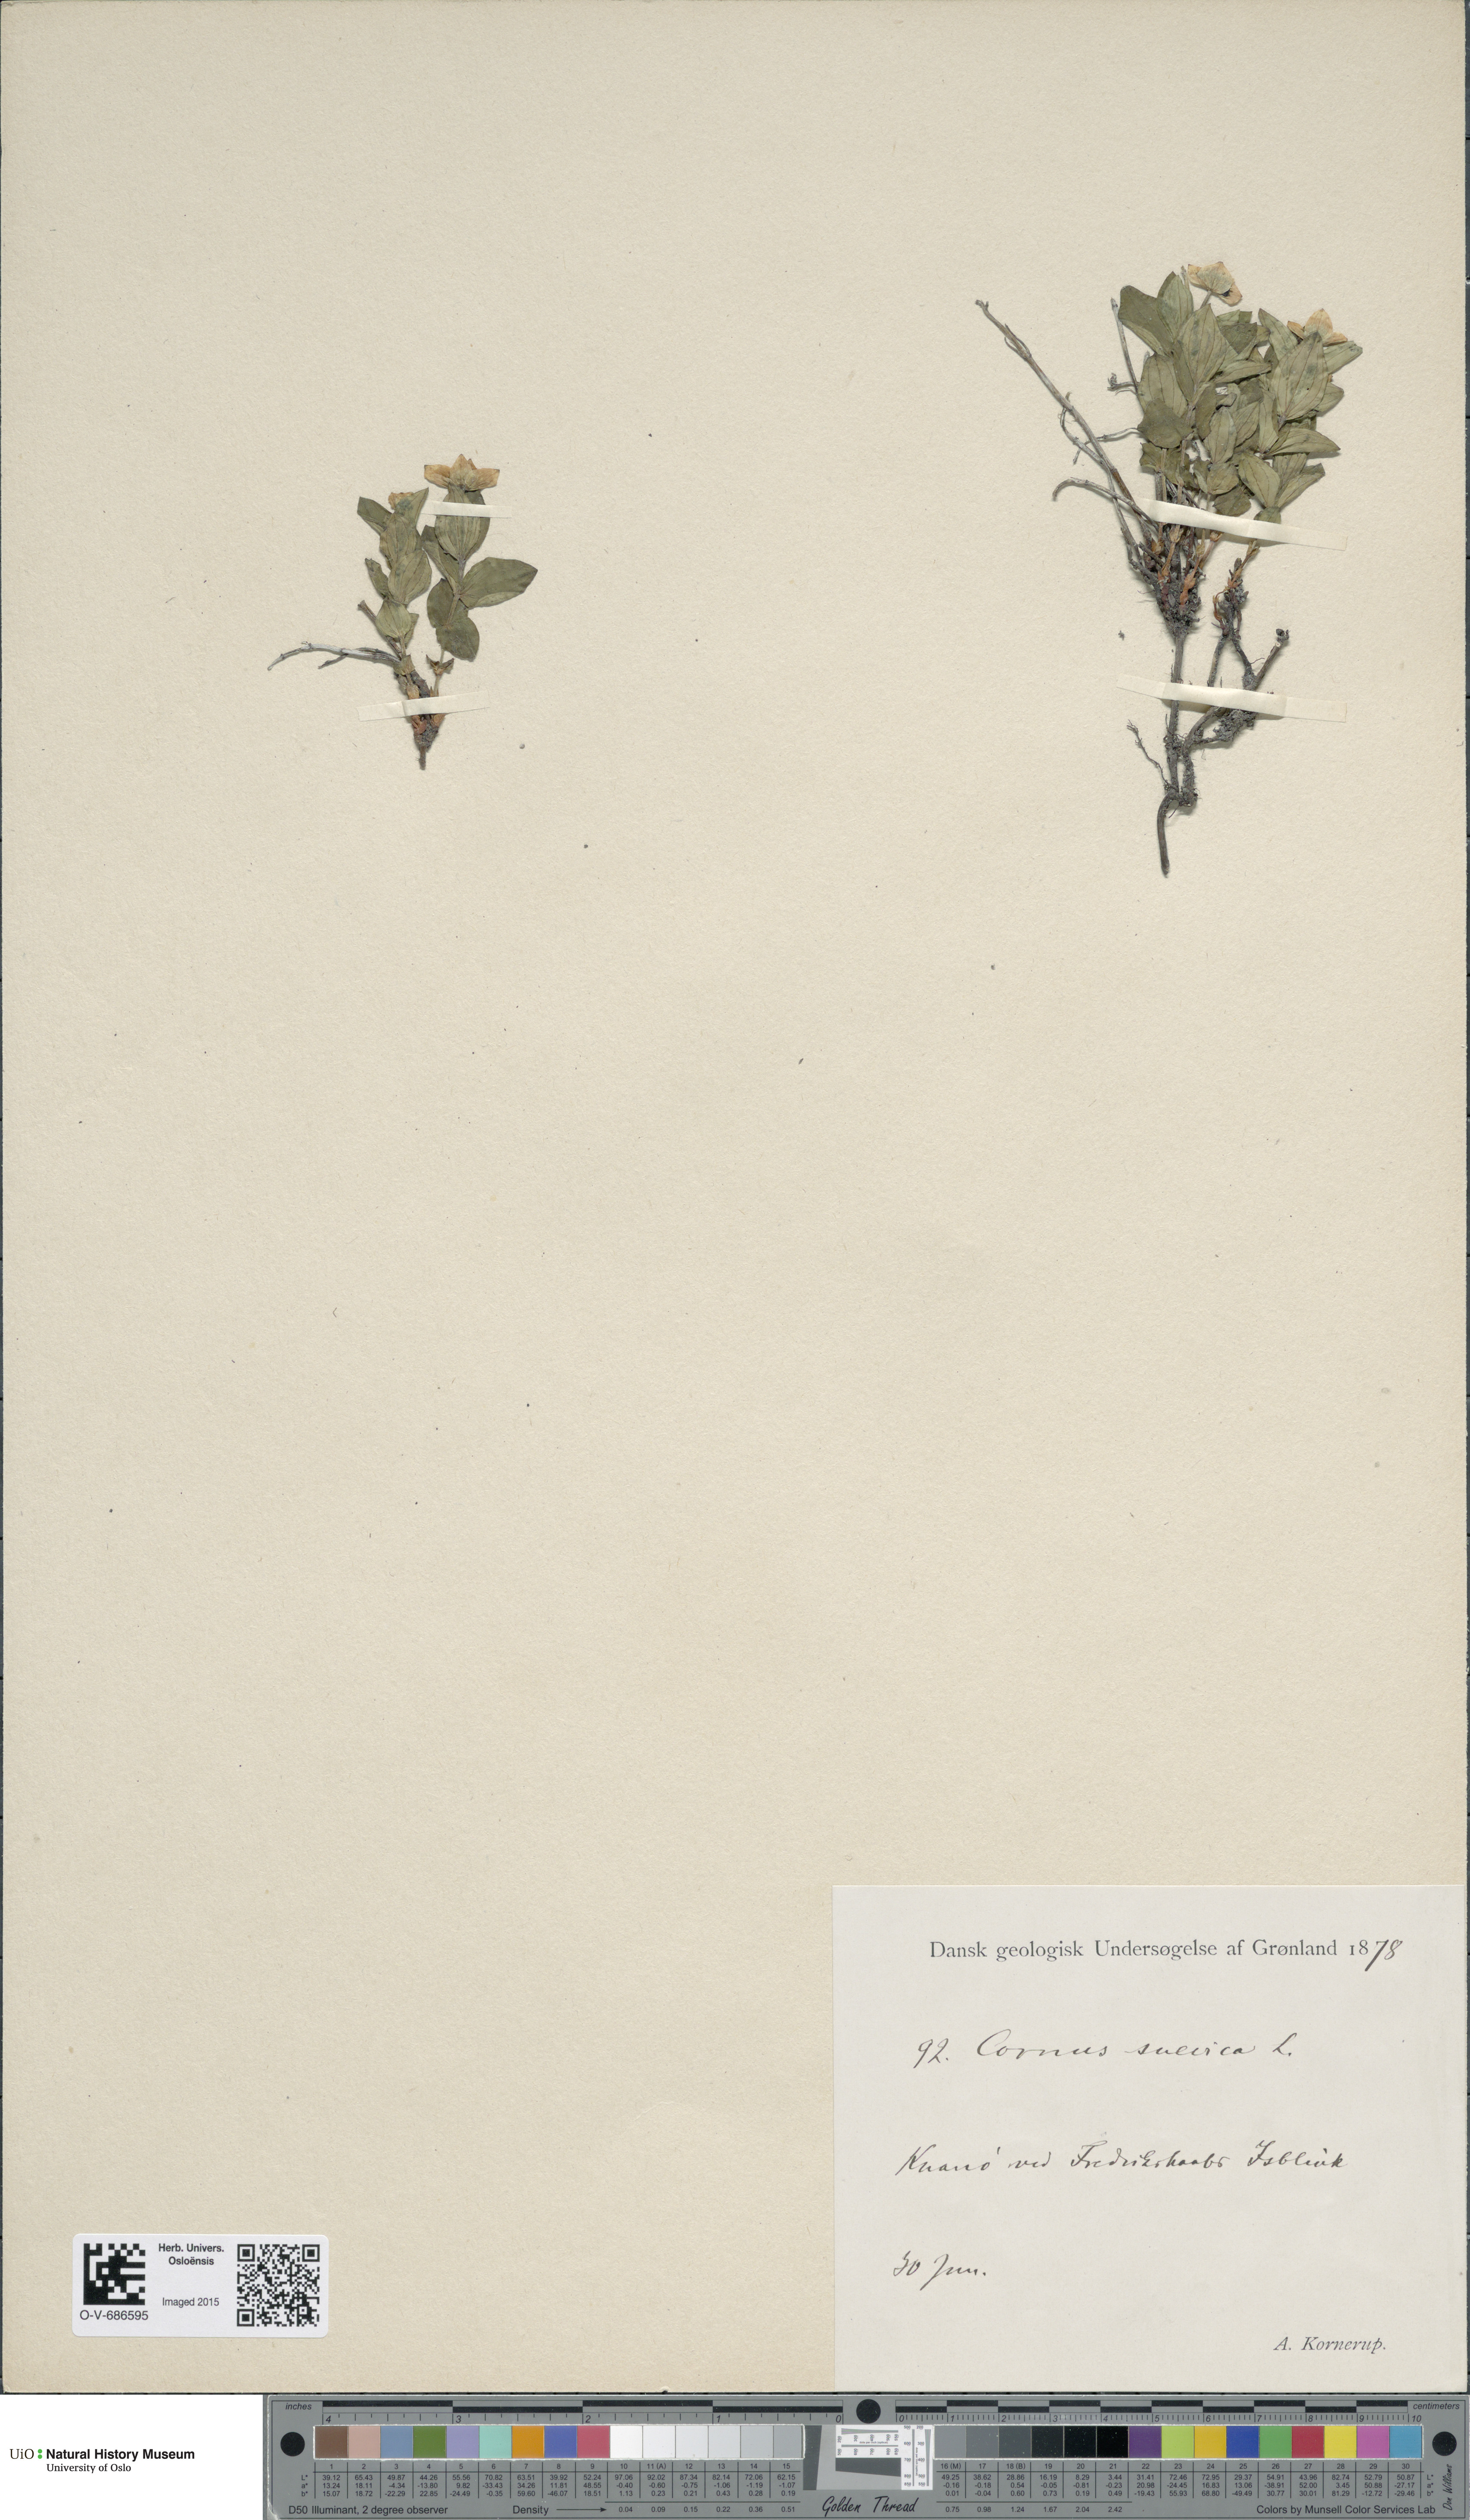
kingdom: Plantae
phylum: Tracheophyta
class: Magnoliopsida
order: Cornales
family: Cornaceae
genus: Cornus
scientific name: Cornus suecica
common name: Dwarf cornel
